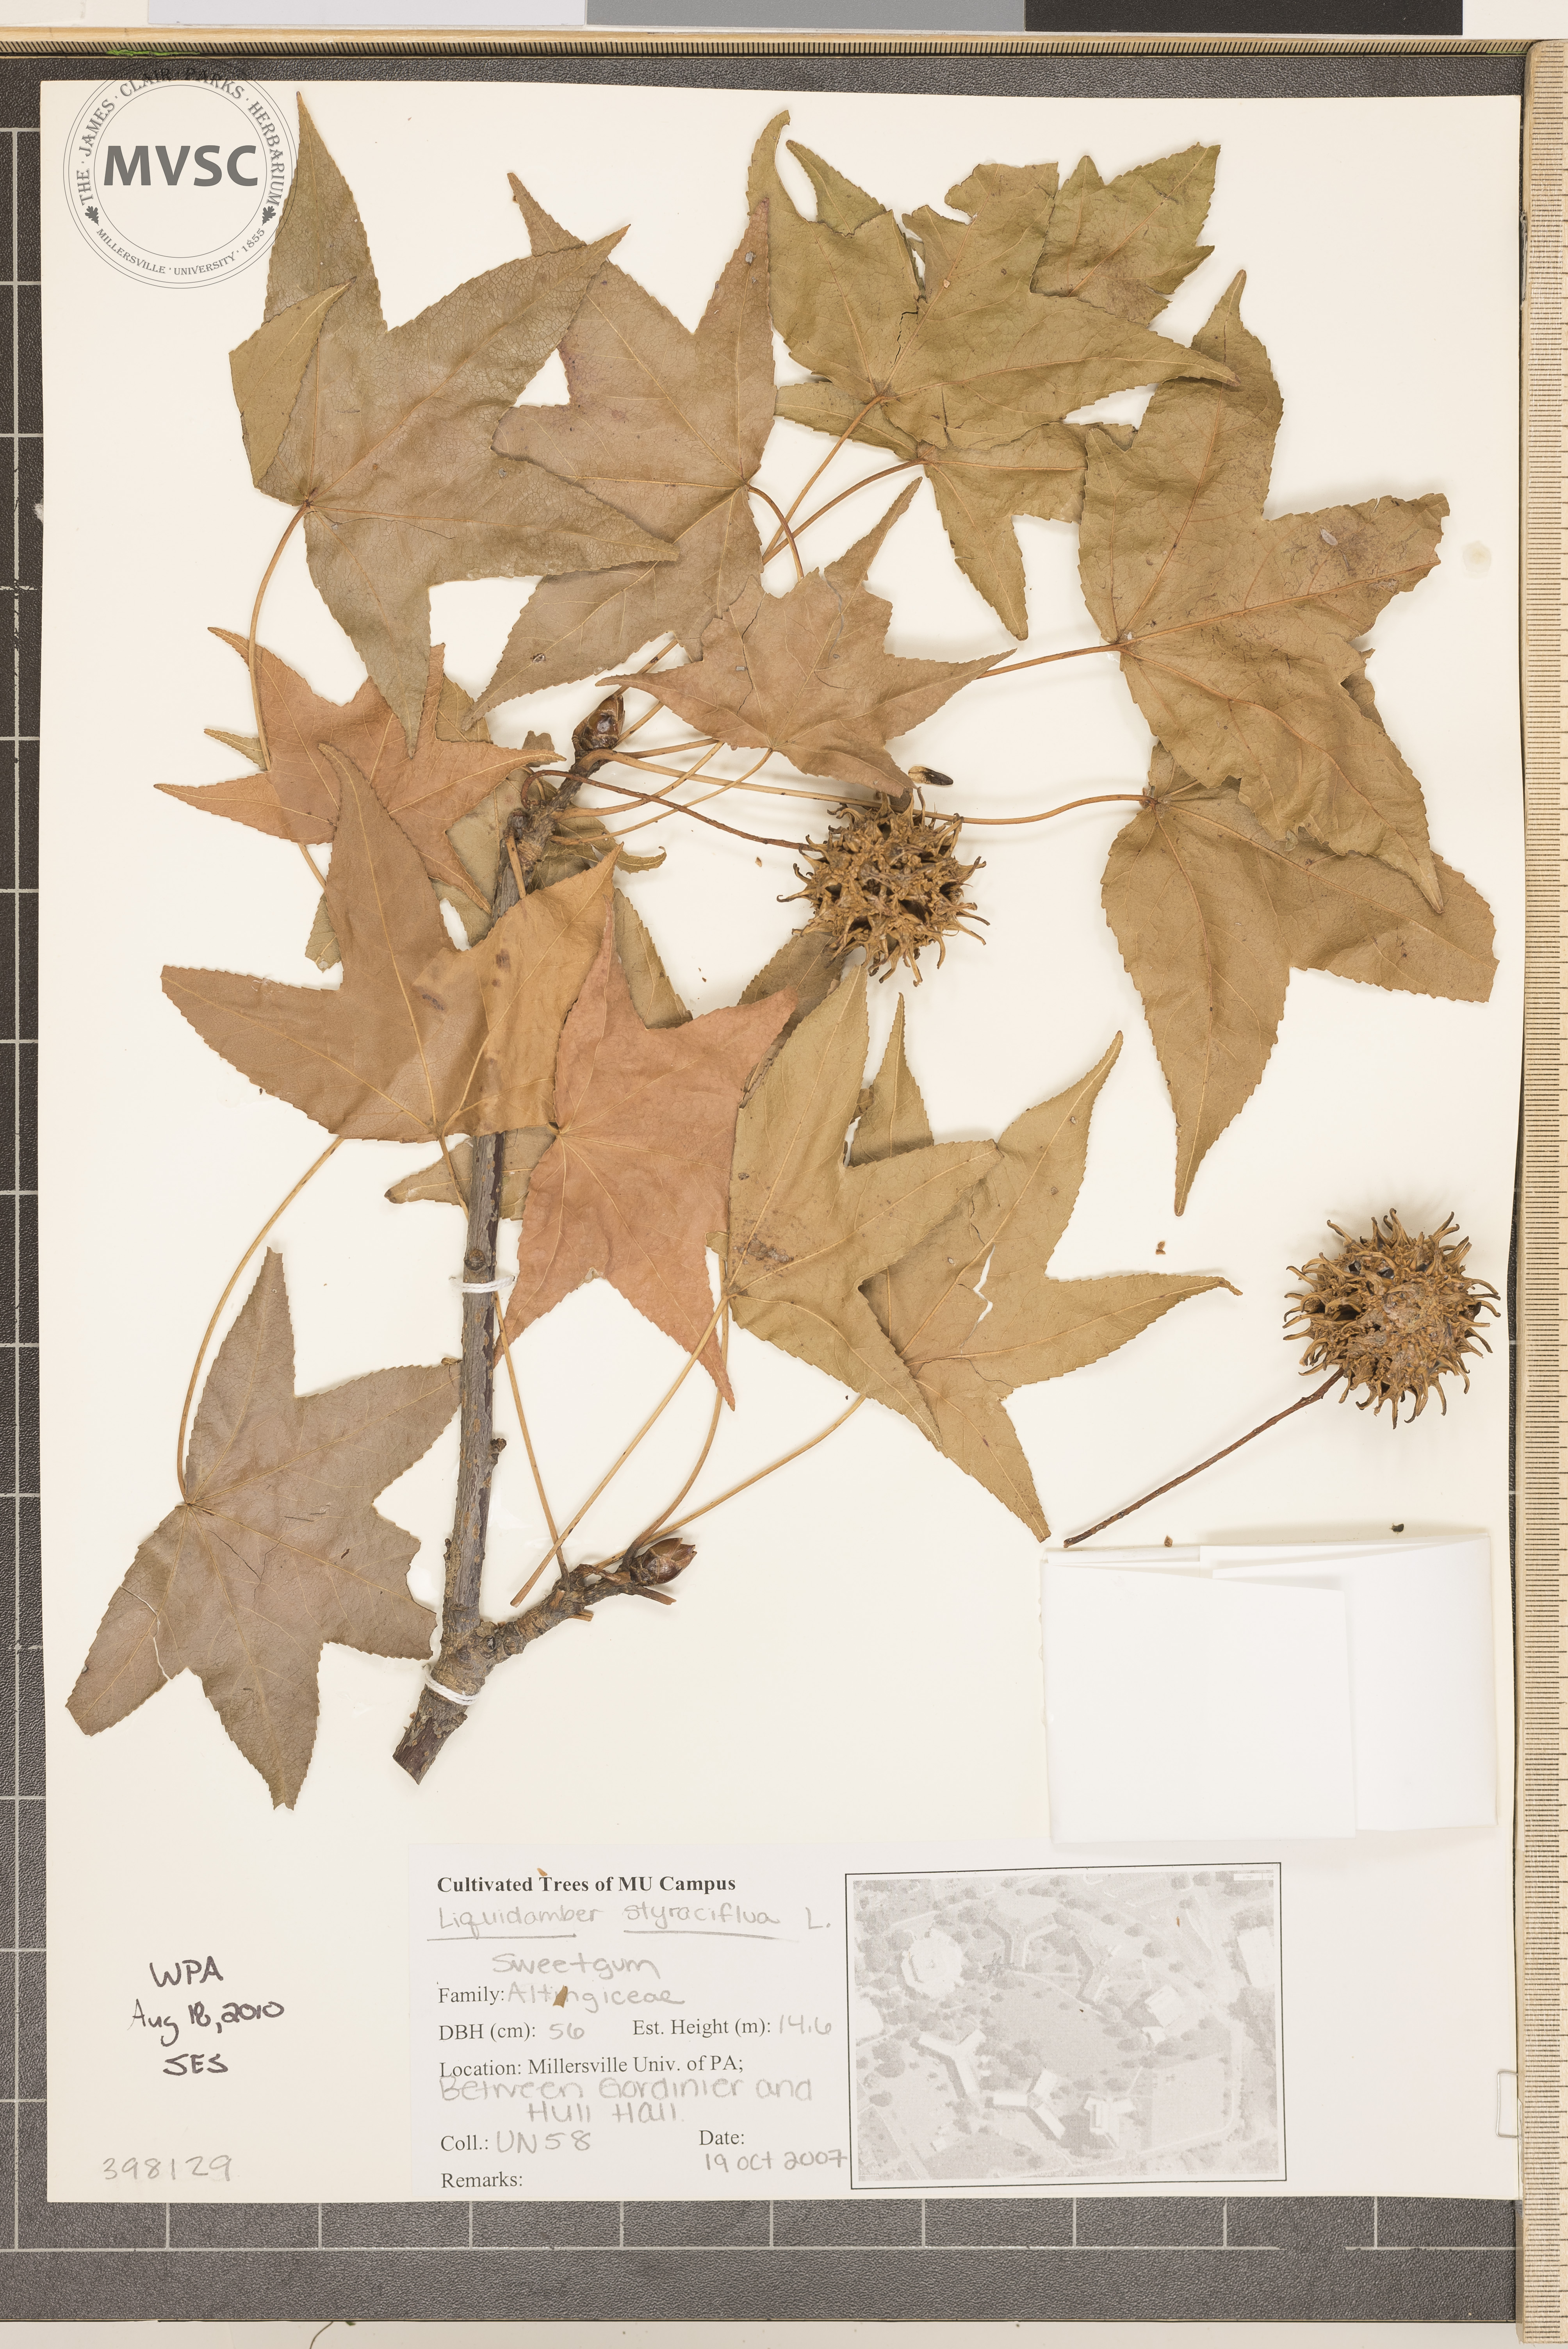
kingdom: Plantae
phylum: Tracheophyta
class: Magnoliopsida
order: Saxifragales
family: Altingiaceae
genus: Liquidambar
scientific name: Liquidambar styraciflua
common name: Sweetgum
